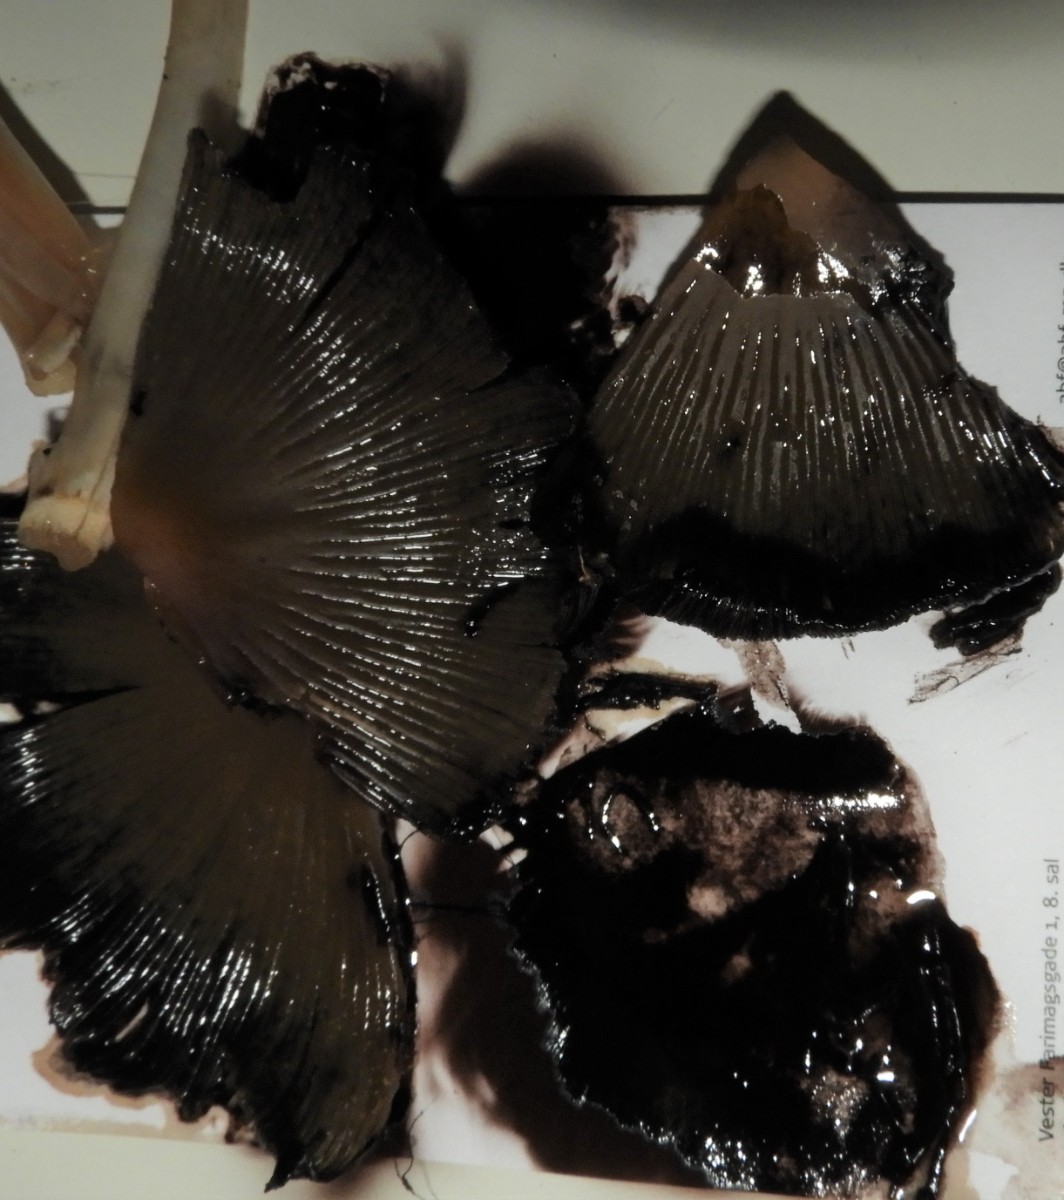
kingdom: Fungi
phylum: Basidiomycota
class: Agaricomycetes
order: Agaricales
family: Psathyrellaceae
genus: Coprinellus
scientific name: Coprinellus
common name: blækhat
